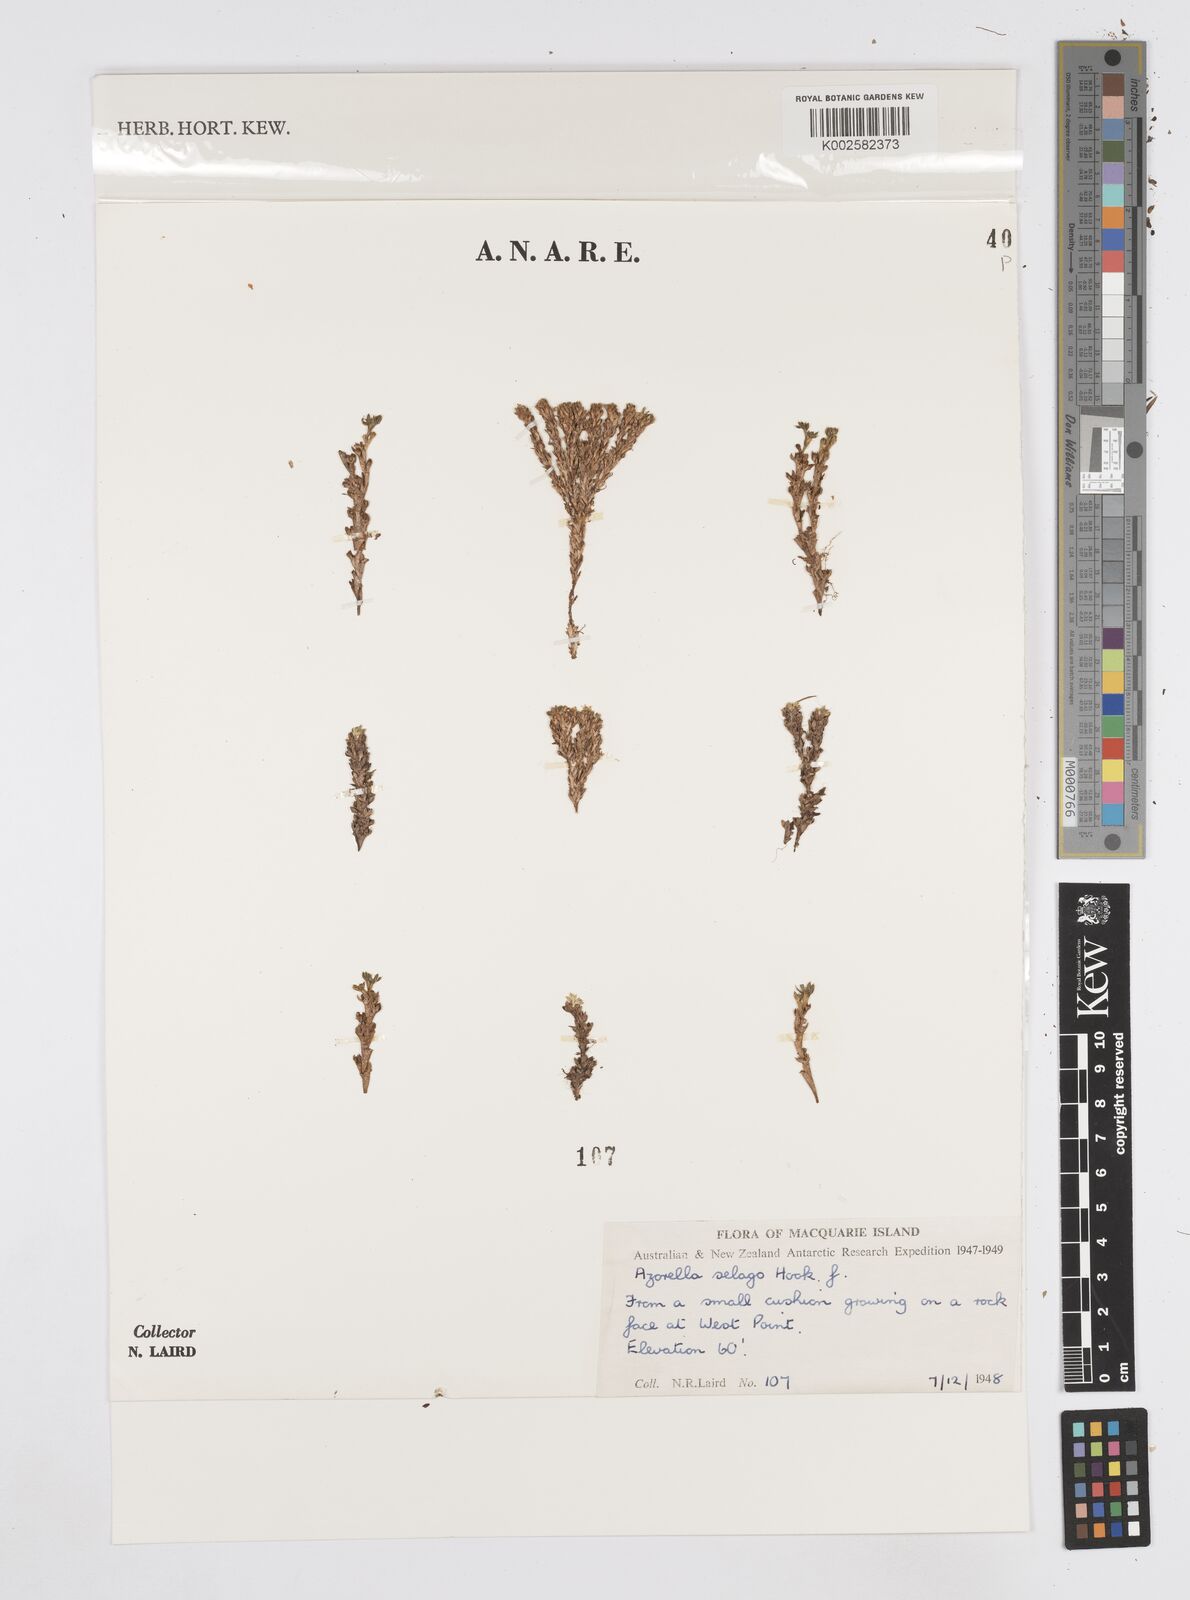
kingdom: Plantae
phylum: Tracheophyta
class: Magnoliopsida
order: Apiales
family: Apiaceae
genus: Azorella
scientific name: Azorella selago
